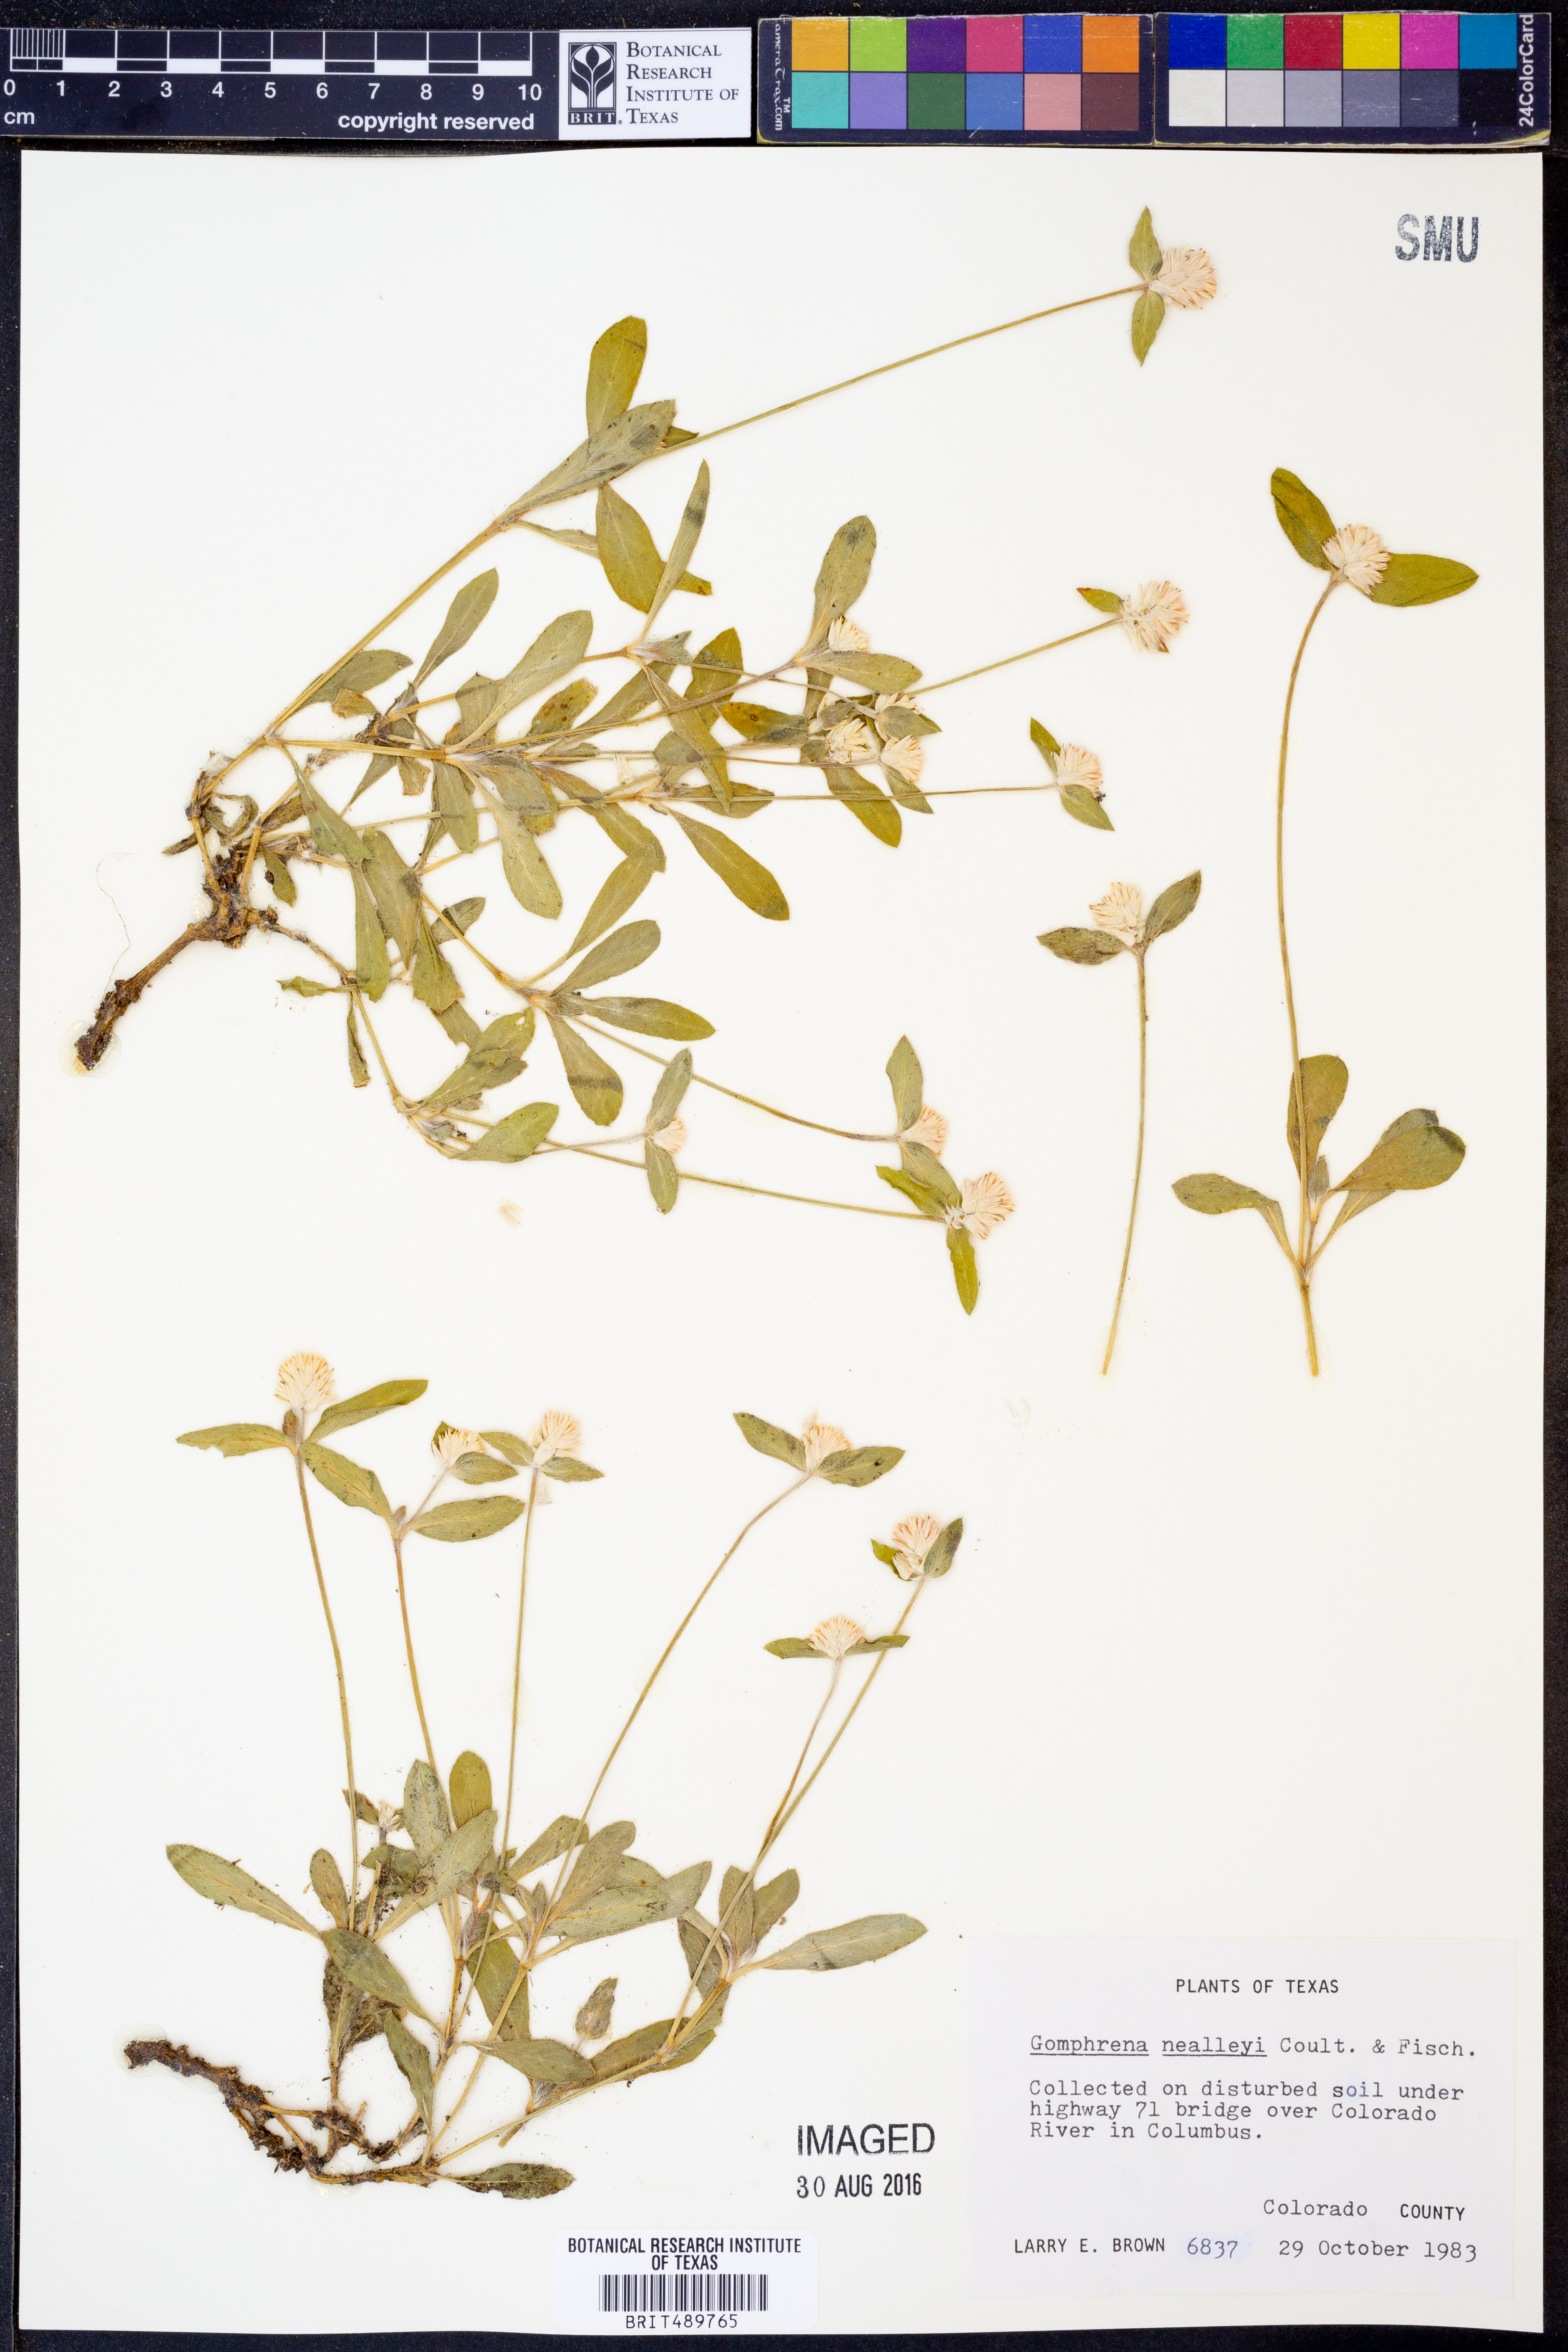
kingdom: Plantae
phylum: Tracheophyta
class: Magnoliopsida
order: Caryophyllales
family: Amaranthaceae
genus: Gomphrena
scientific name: Gomphrena nealleyi
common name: Nealley's globe-amaranth
